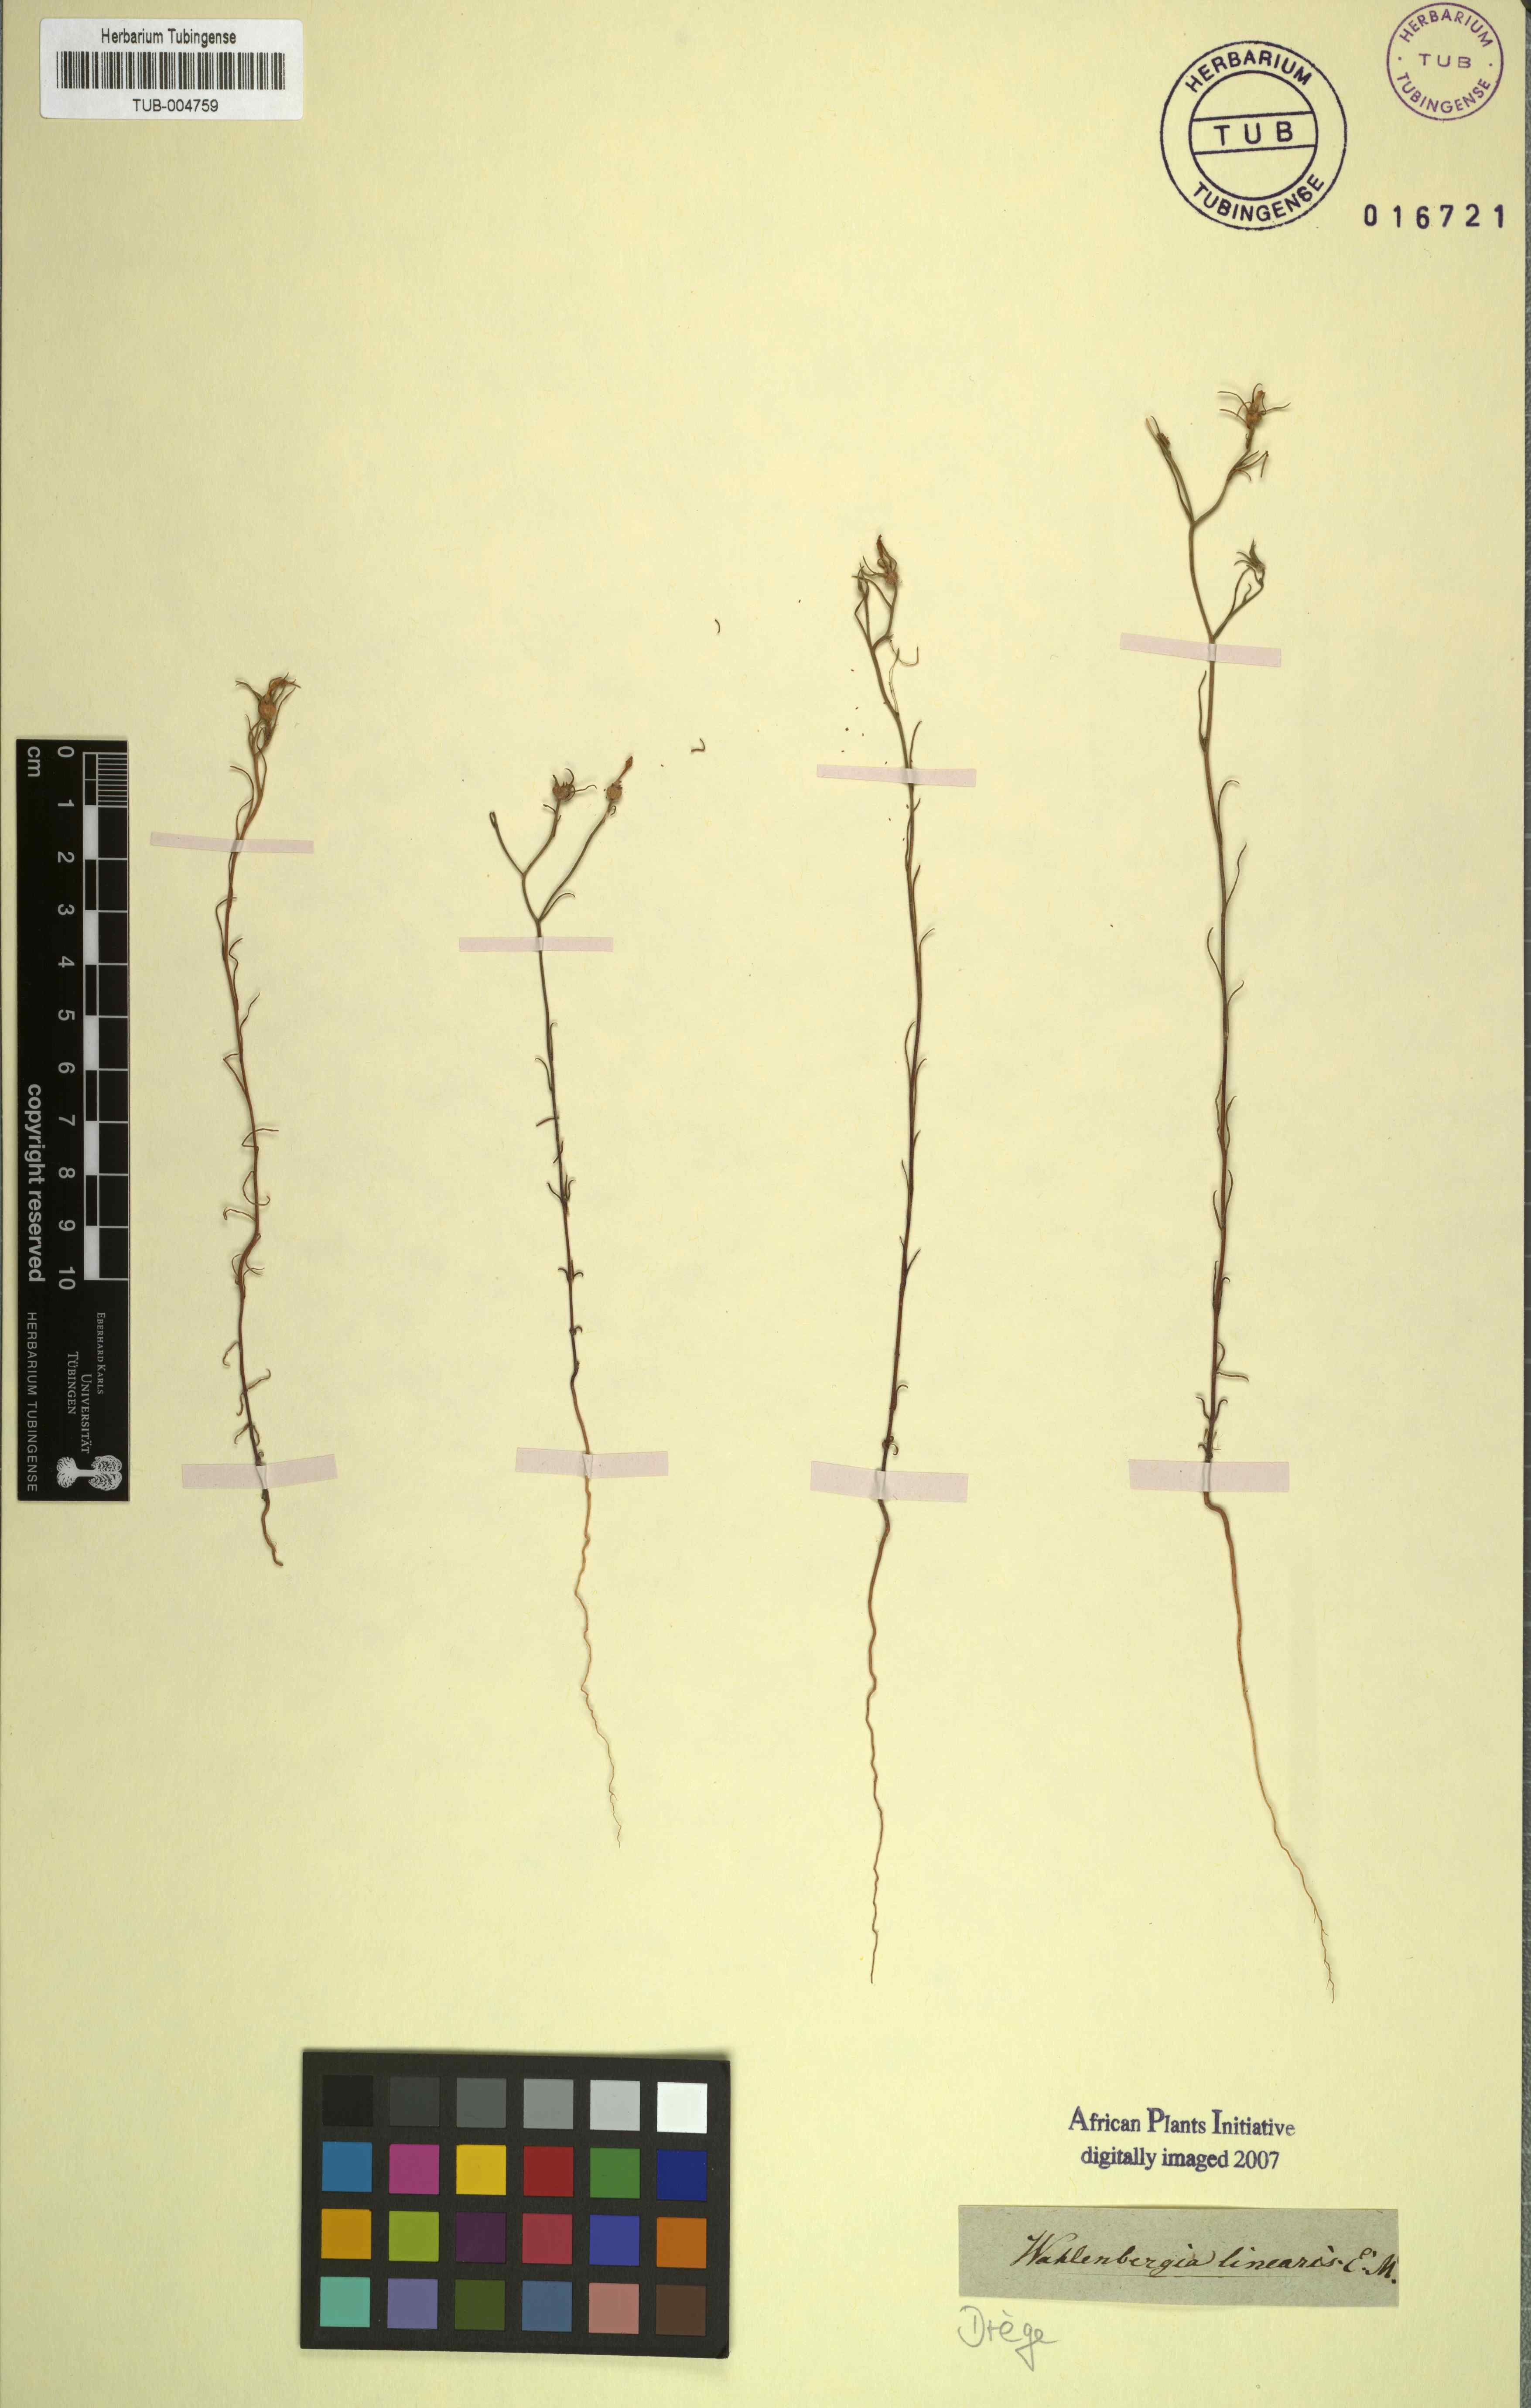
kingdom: Plantae
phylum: Tracheophyta
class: Magnoliopsida
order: Asterales
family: Campanulaceae
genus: Microcodon
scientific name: Microcodon linearis
